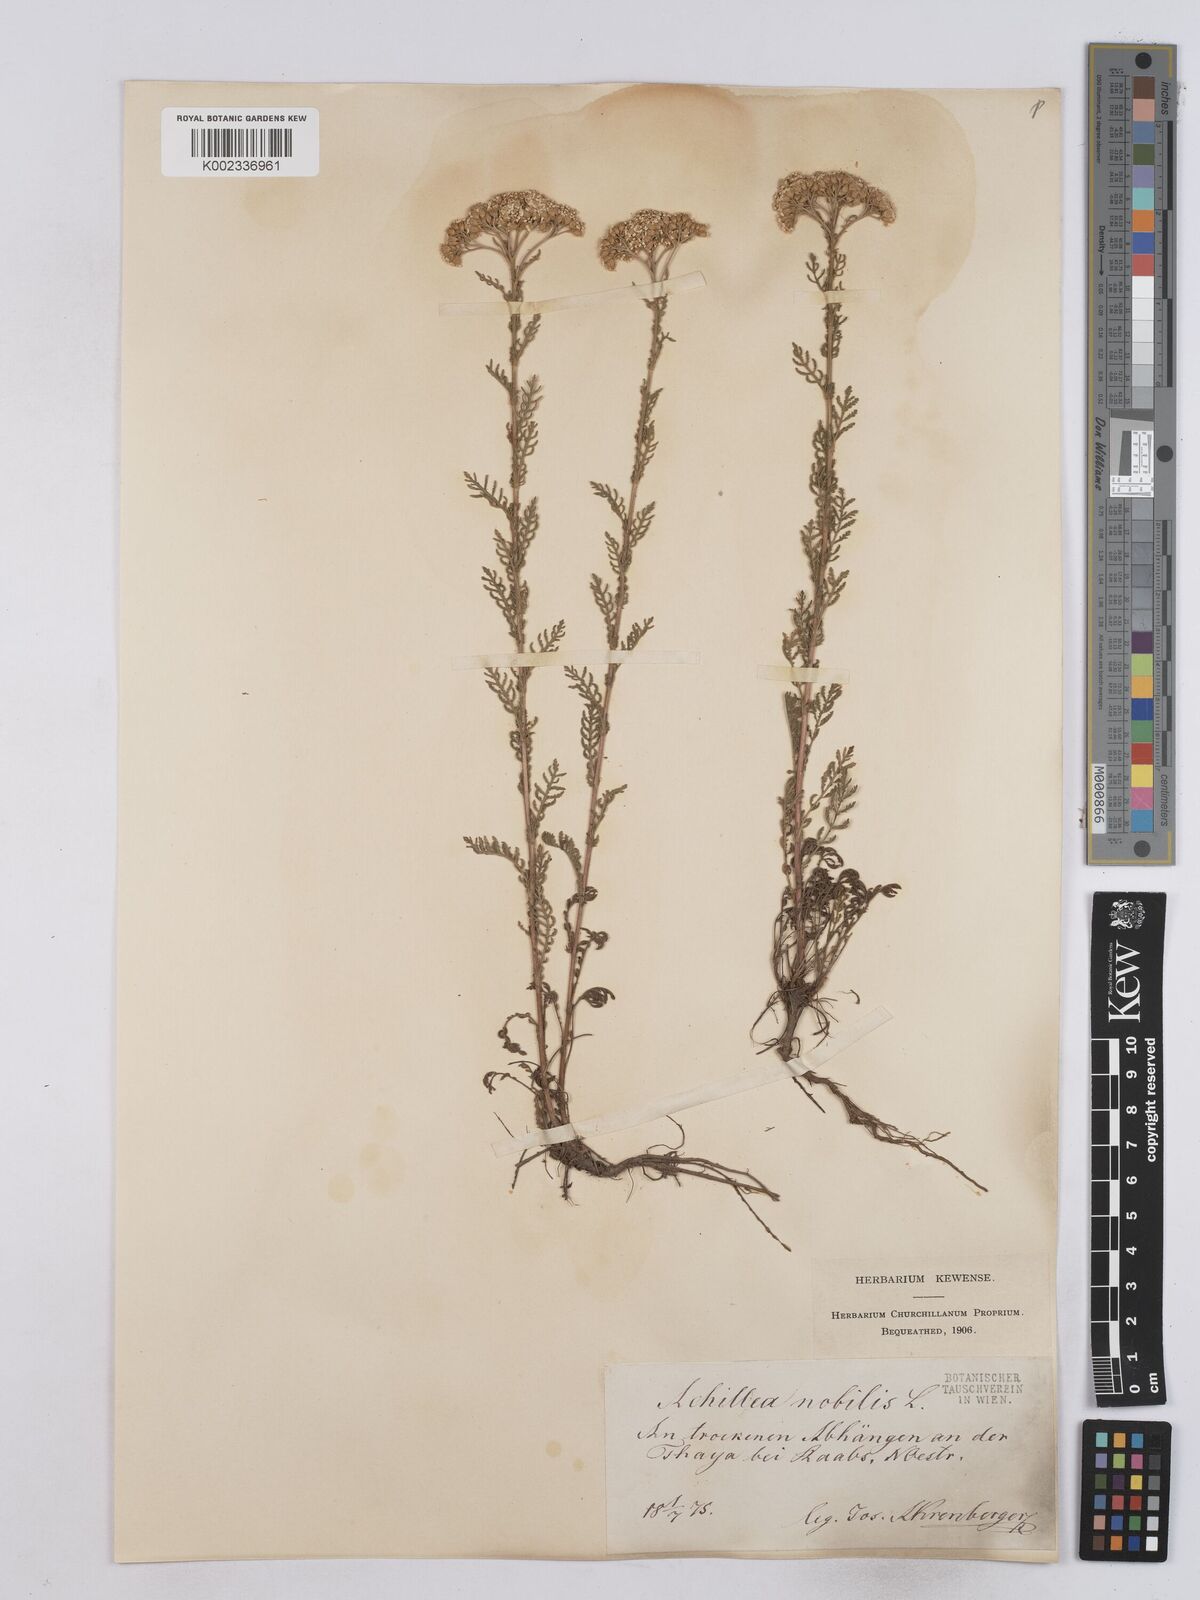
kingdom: Plantae
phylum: Tracheophyta
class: Magnoliopsida
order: Asterales
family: Asteraceae
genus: Achillea
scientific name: Achillea nobilis
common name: Noble yarrow
